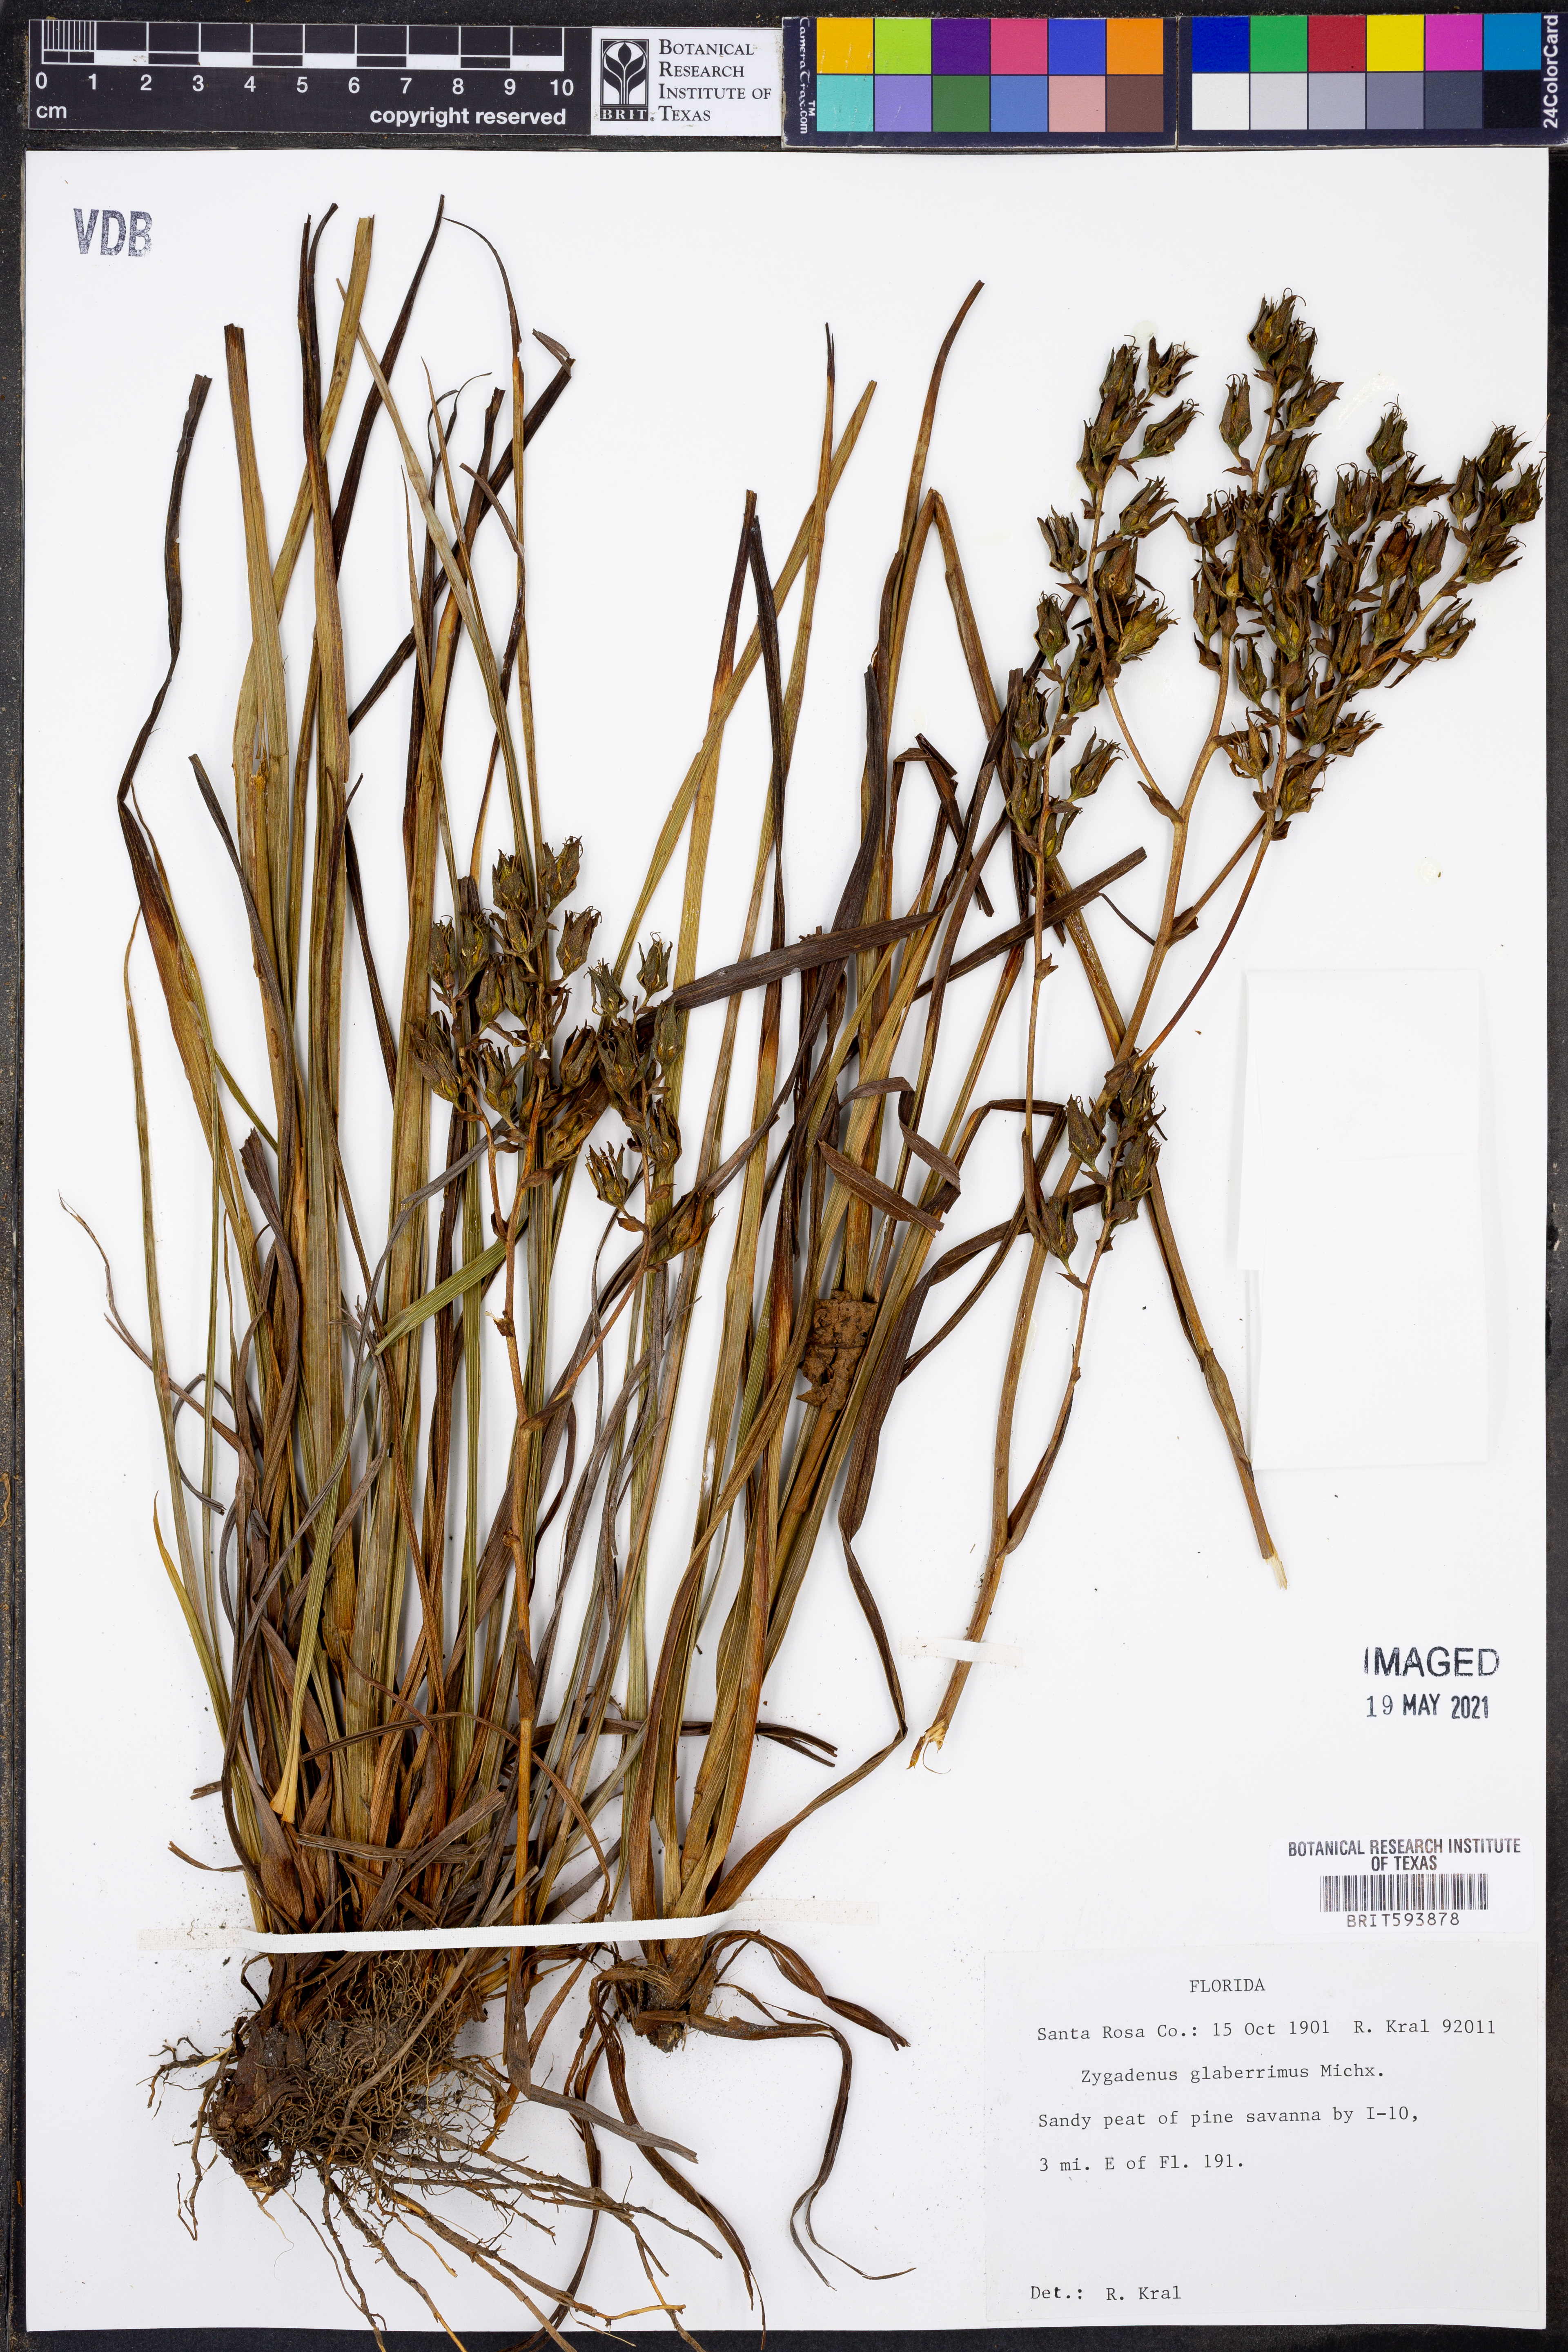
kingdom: Plantae
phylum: Tracheophyta
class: Liliopsida
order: Liliales
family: Melanthiaceae
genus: Zigadenus
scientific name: Zigadenus glaberrimus
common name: Sandbog death camas
